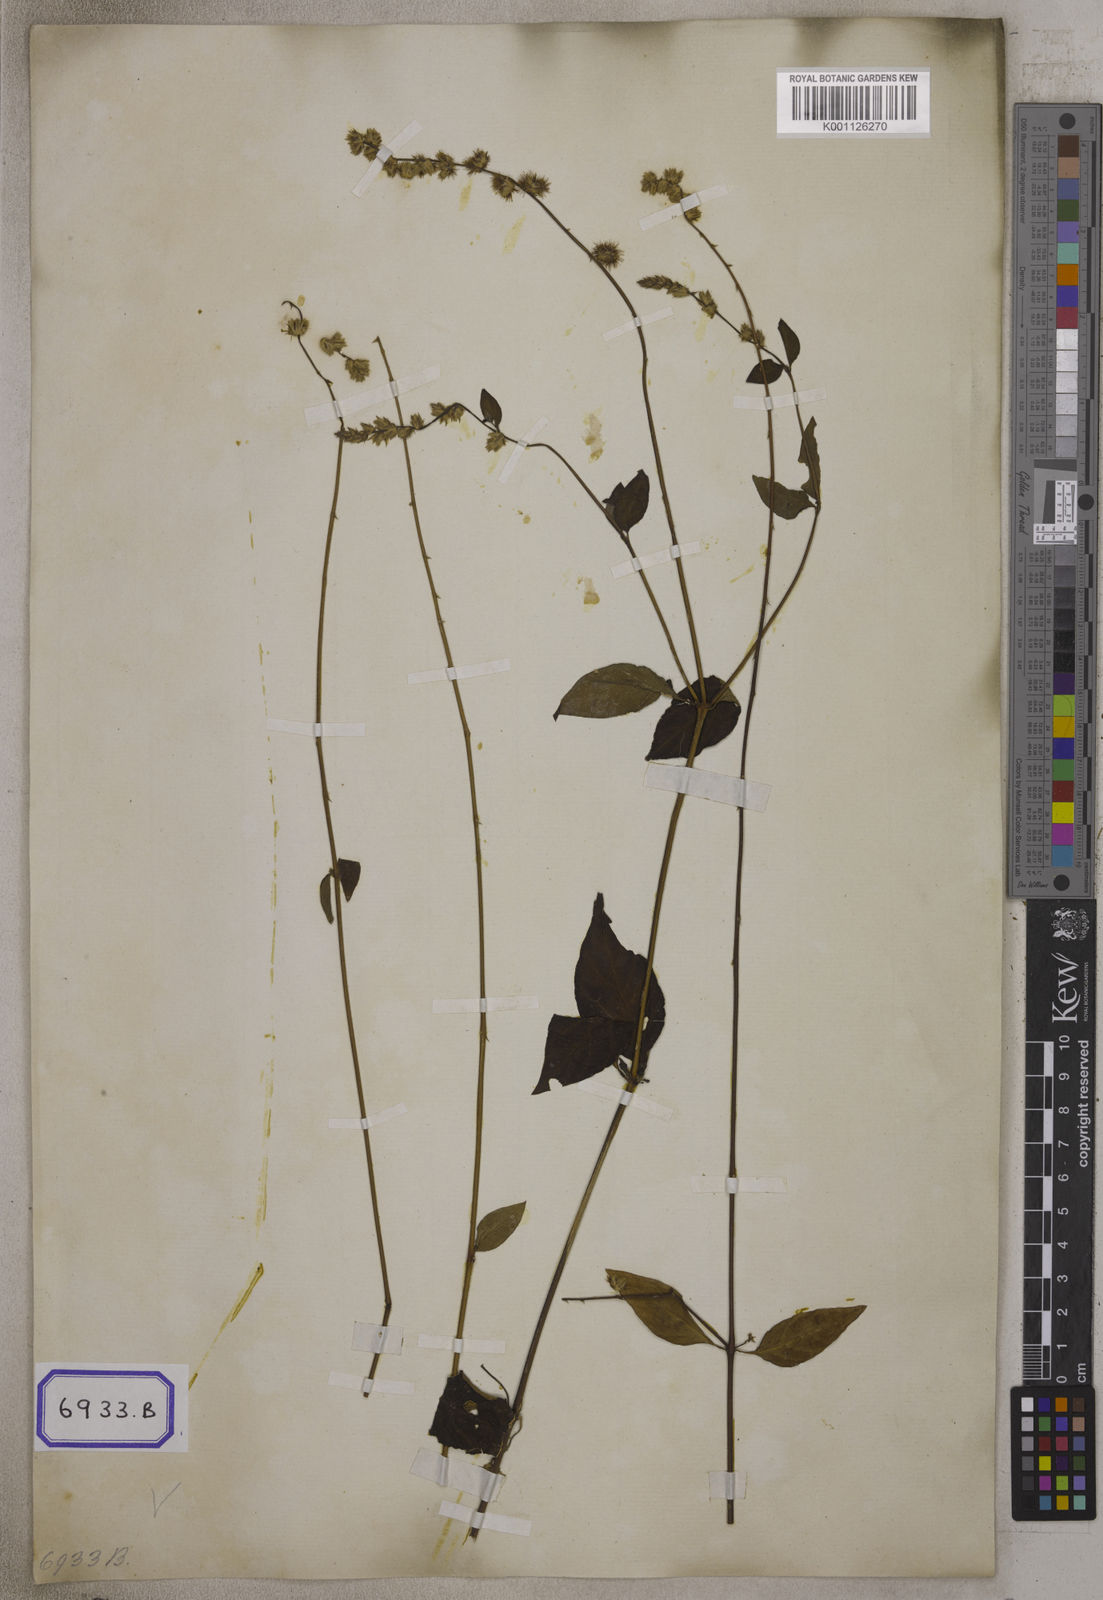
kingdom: Plantae
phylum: Tracheophyta
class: Magnoliopsida
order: Caryophyllales
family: Amaranthaceae
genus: Pupalia
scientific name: Pupalia lappacea
